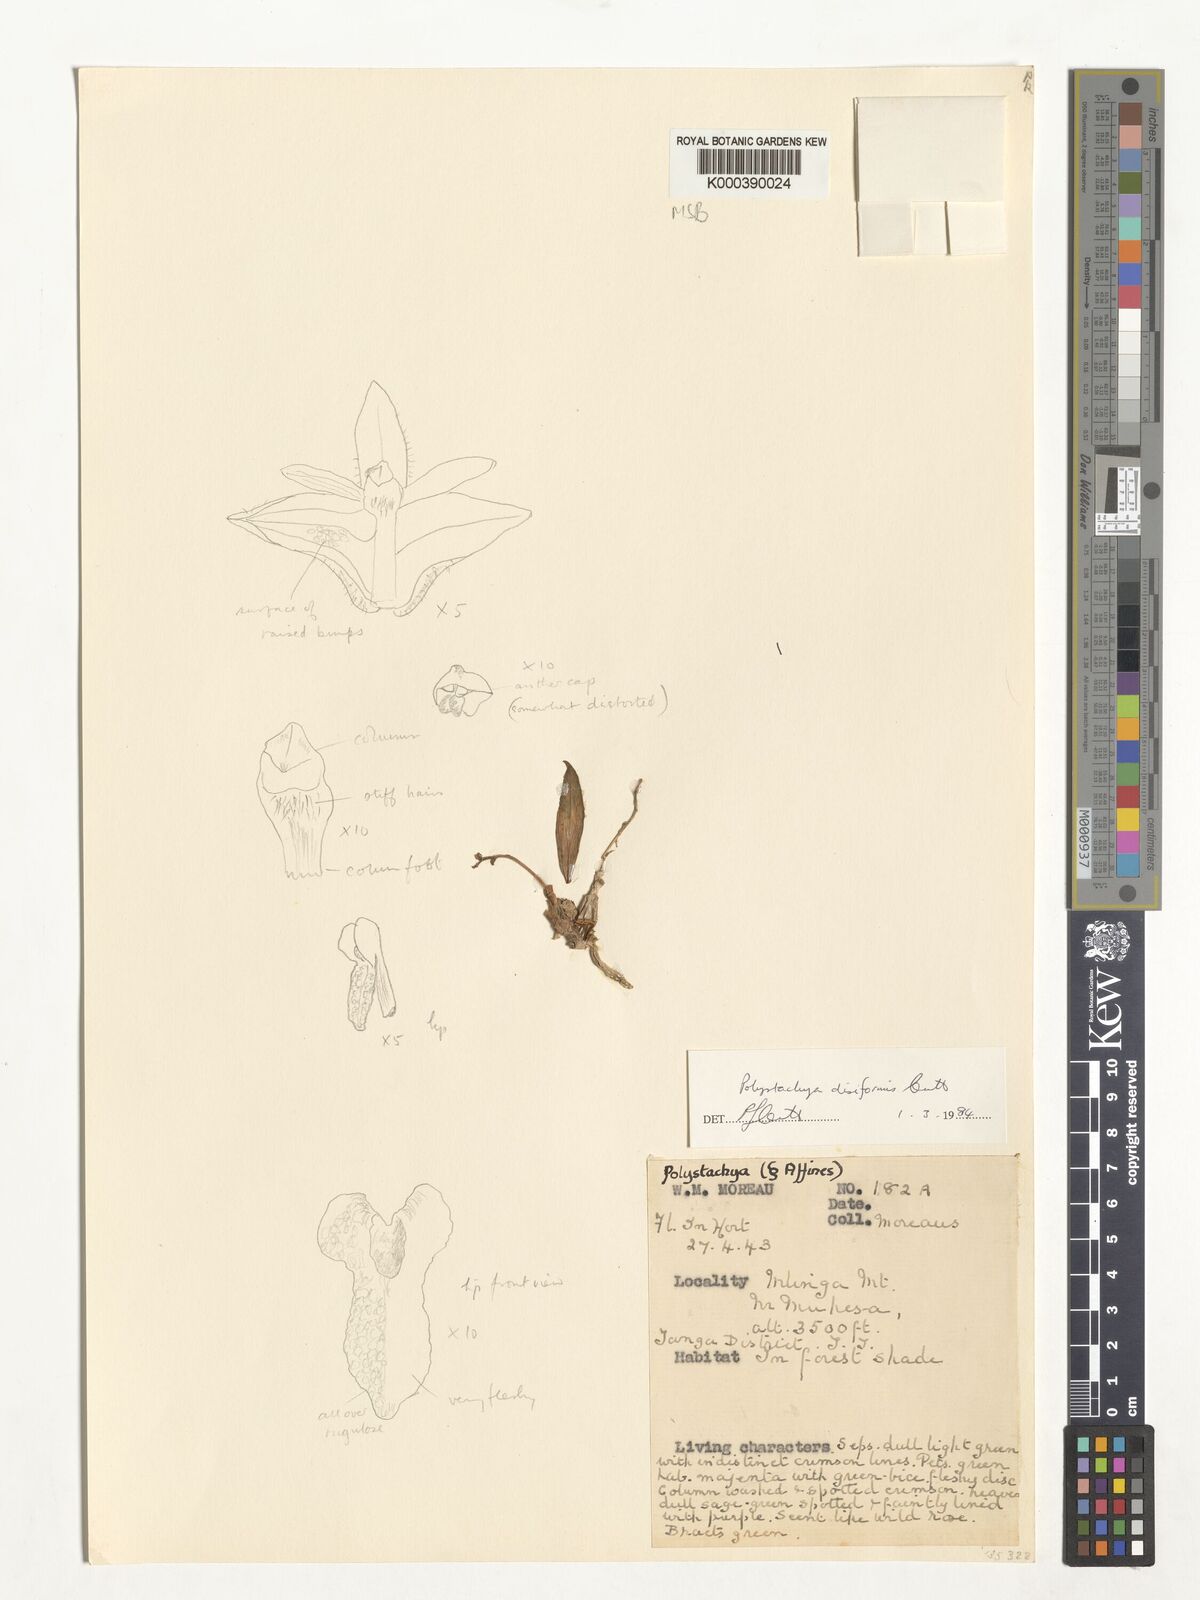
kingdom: Plantae
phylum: Tracheophyta
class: Liliopsida
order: Asparagales
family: Orchidaceae
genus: Polystachya
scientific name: Polystachya disiformis
